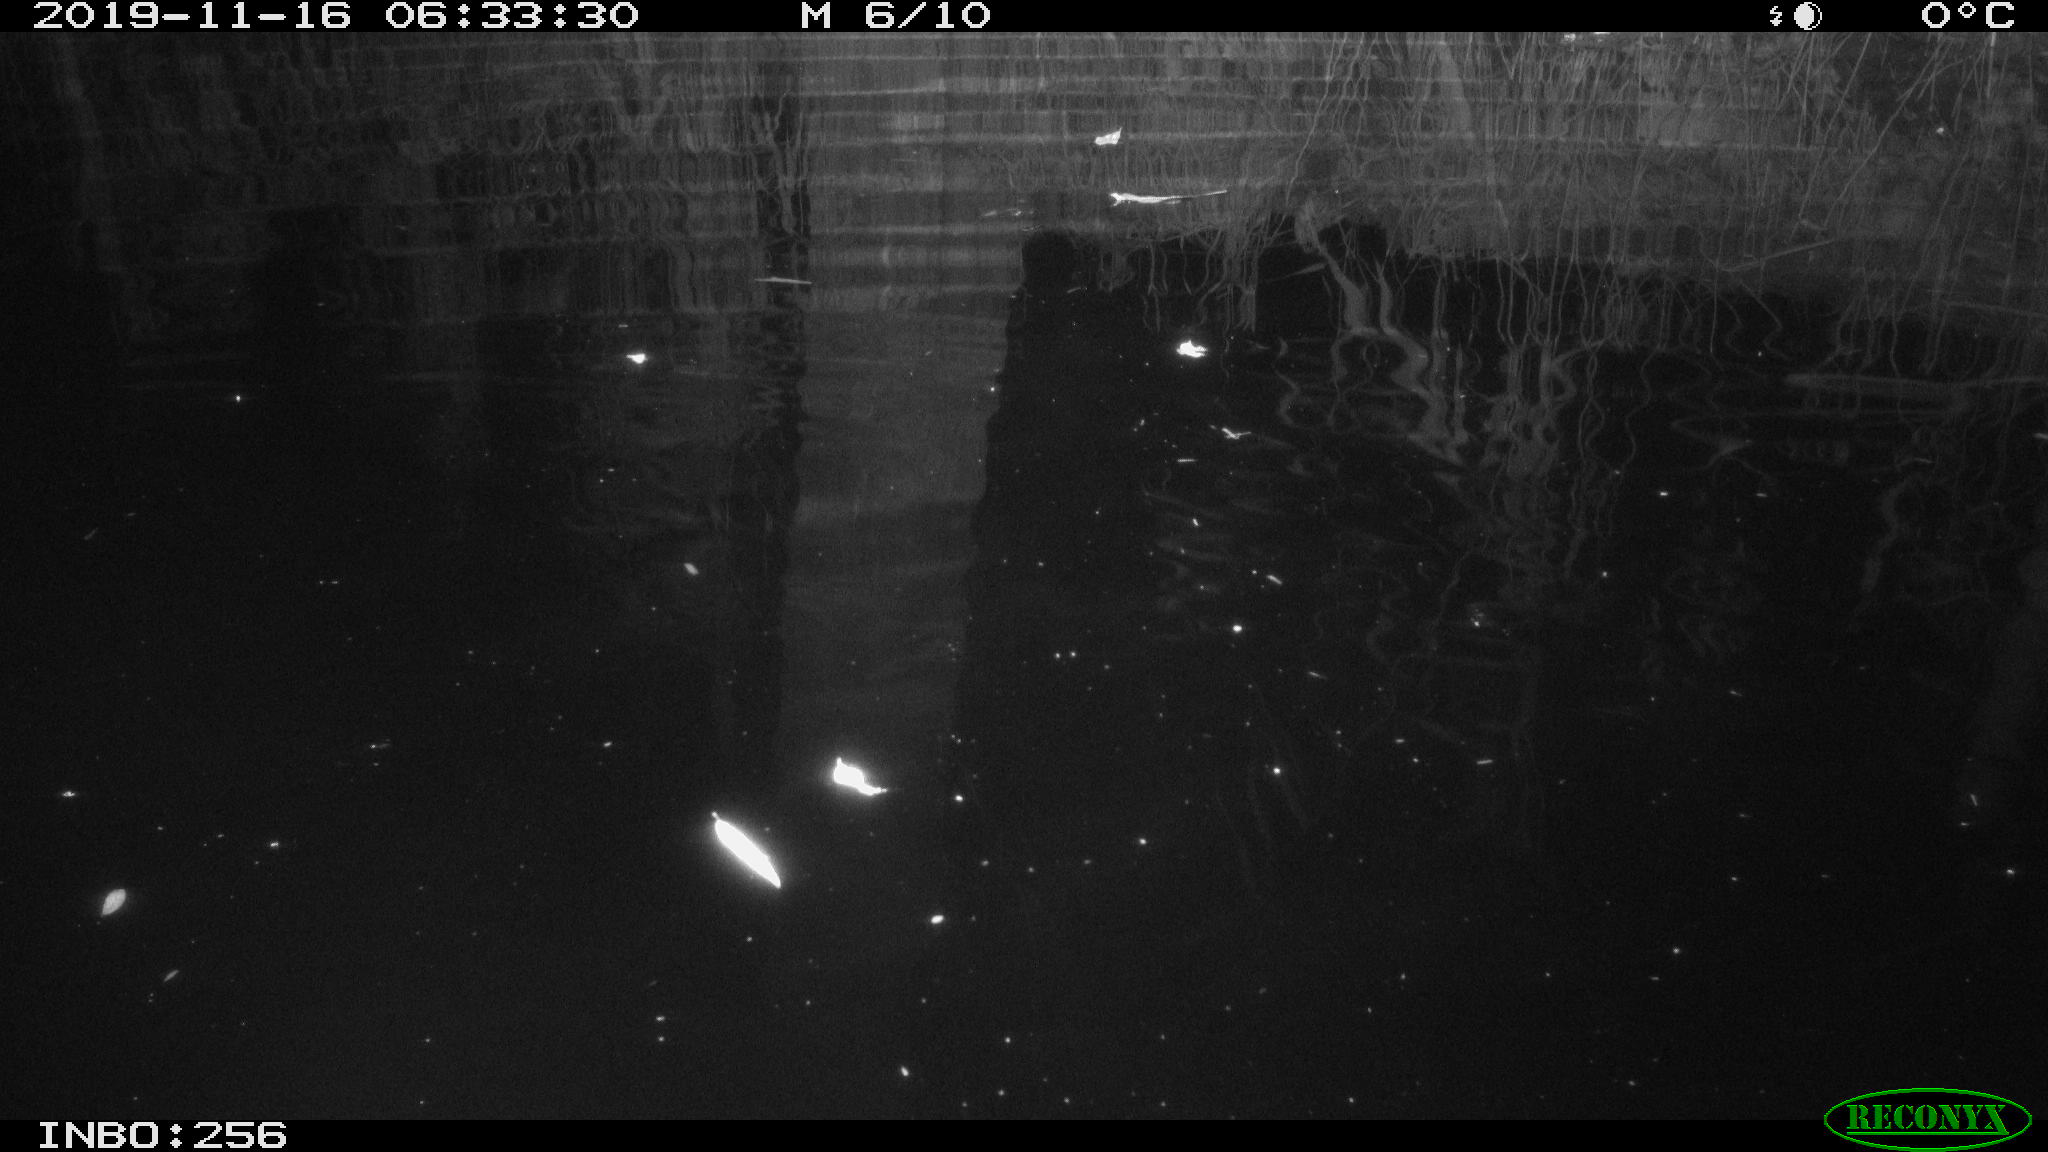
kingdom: Animalia
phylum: Chordata
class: Mammalia
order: Rodentia
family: Muridae
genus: Rattus
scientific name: Rattus norvegicus
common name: Brown rat
